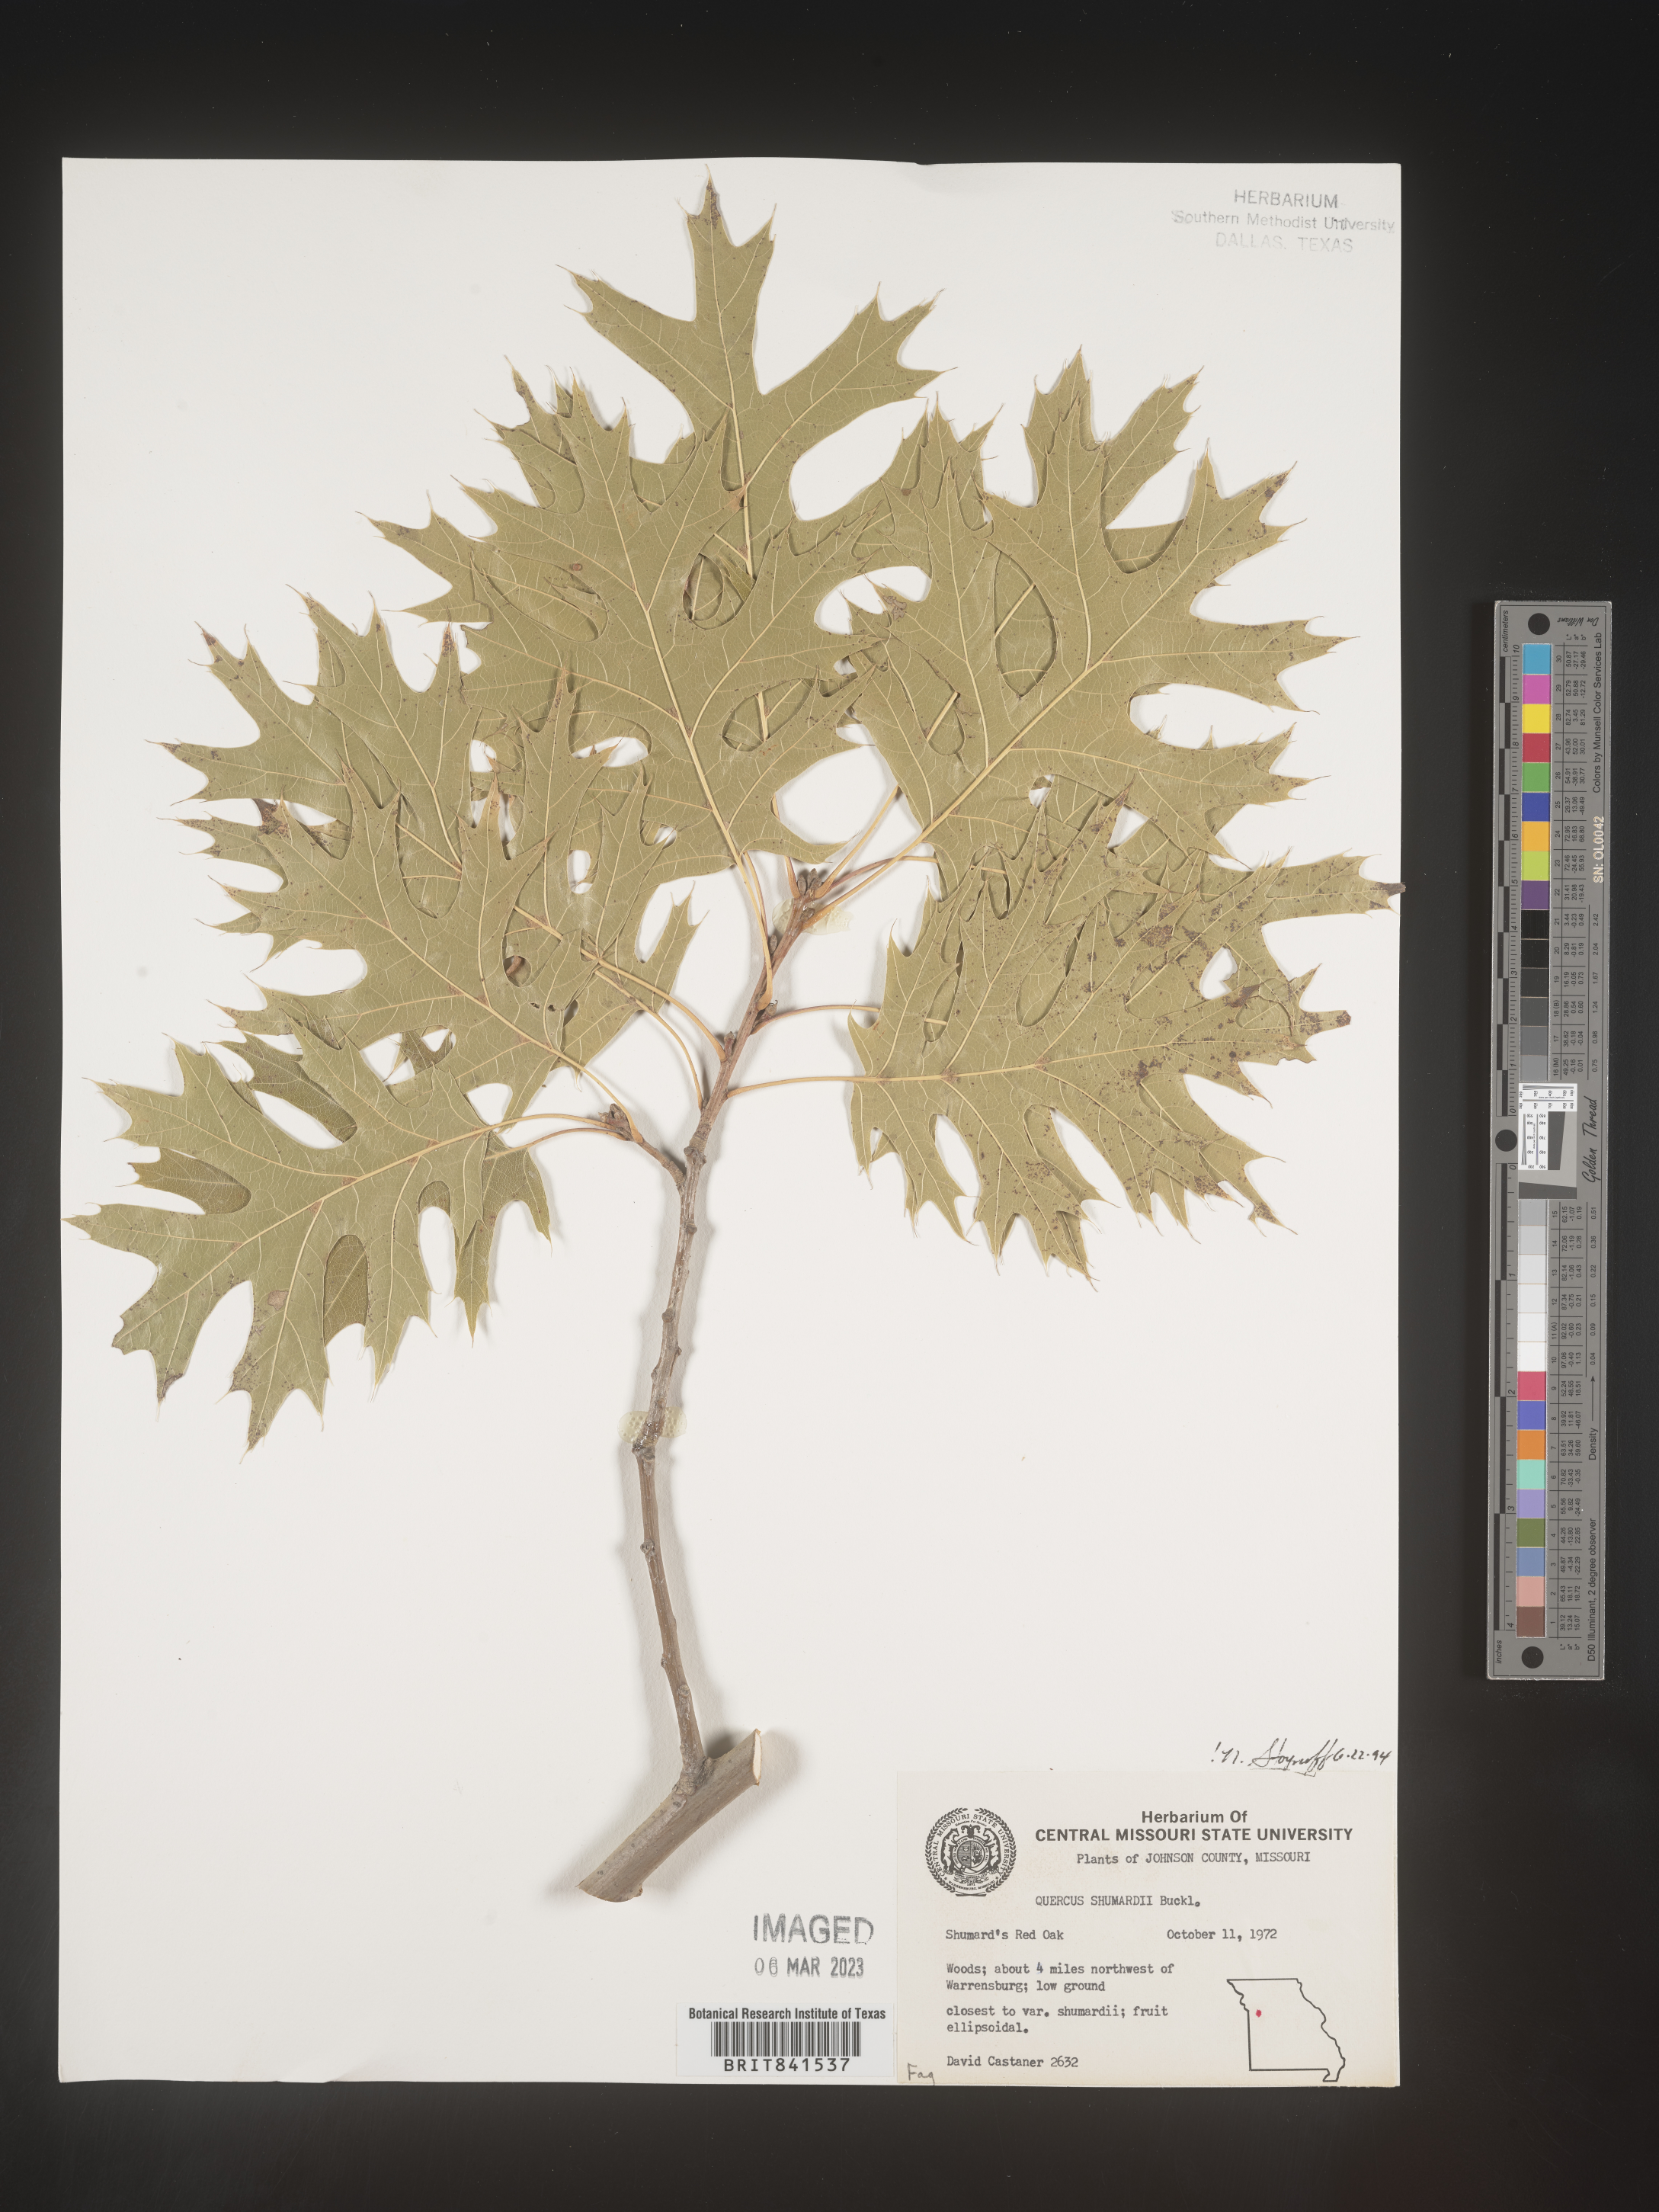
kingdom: Plantae
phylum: Tracheophyta
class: Magnoliopsida
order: Fagales
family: Fagaceae
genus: Quercus
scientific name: Quercus shumardii
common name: Shumard oak
